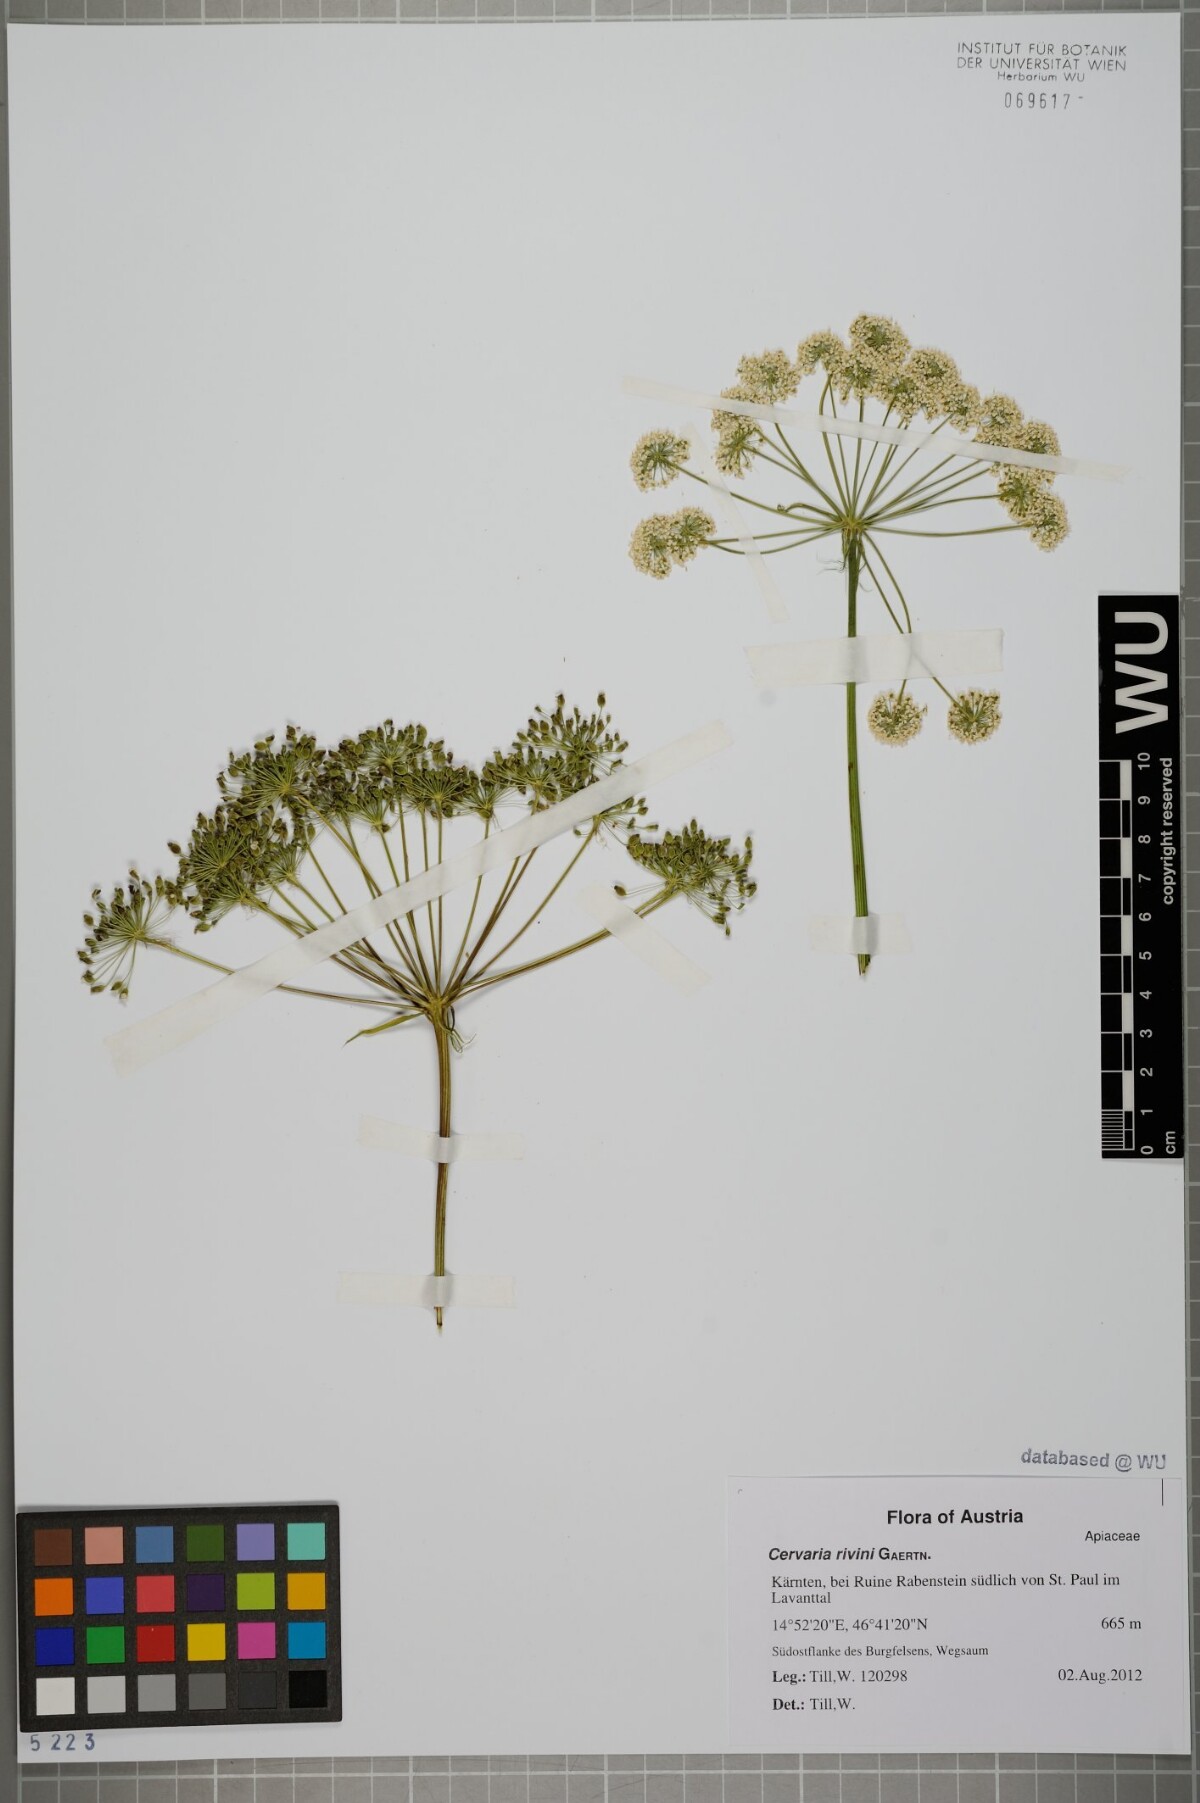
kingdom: Plantae
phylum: Tracheophyta
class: Magnoliopsida
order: Apiales
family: Apiaceae
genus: Cervaria
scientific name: Cervaria rivini
